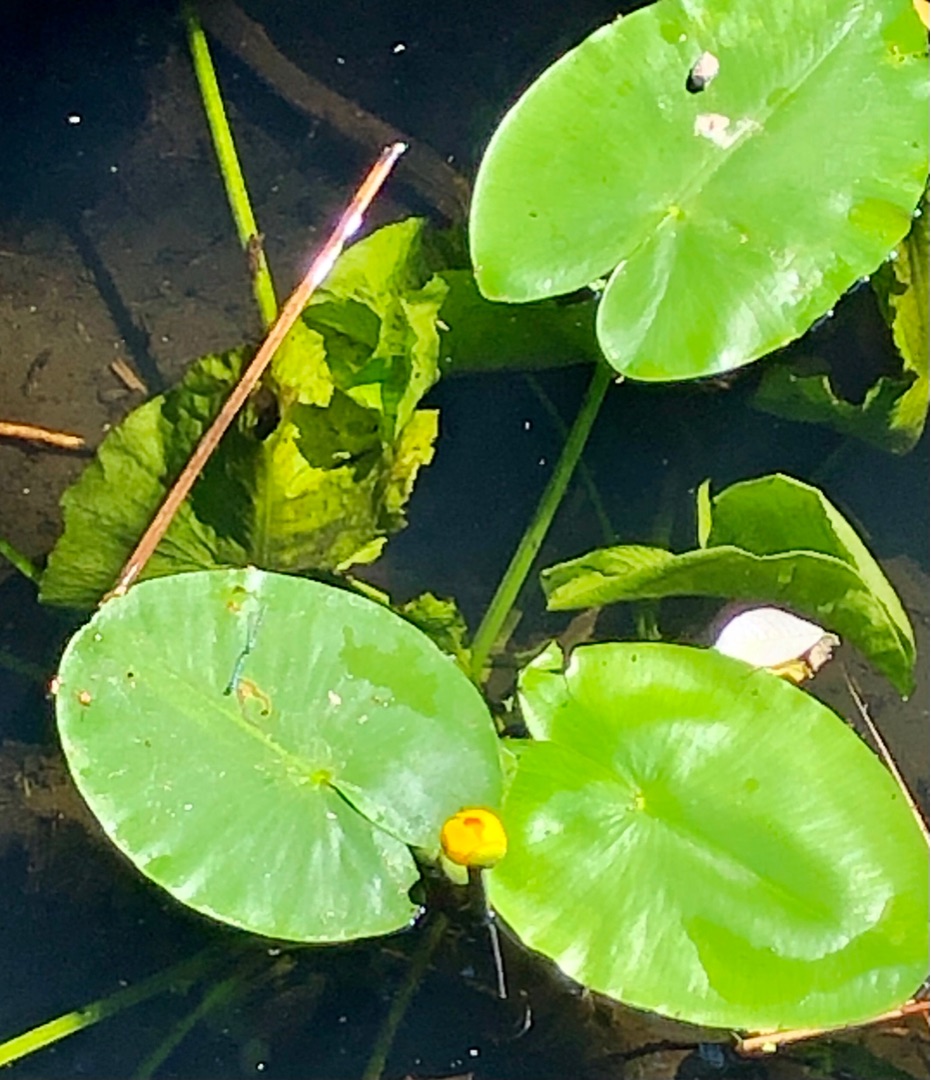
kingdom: Plantae
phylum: Tracheophyta
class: Magnoliopsida
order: Nymphaeales
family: Nymphaeaceae
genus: Nuphar
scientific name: Nuphar lutea
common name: Gul åkande
